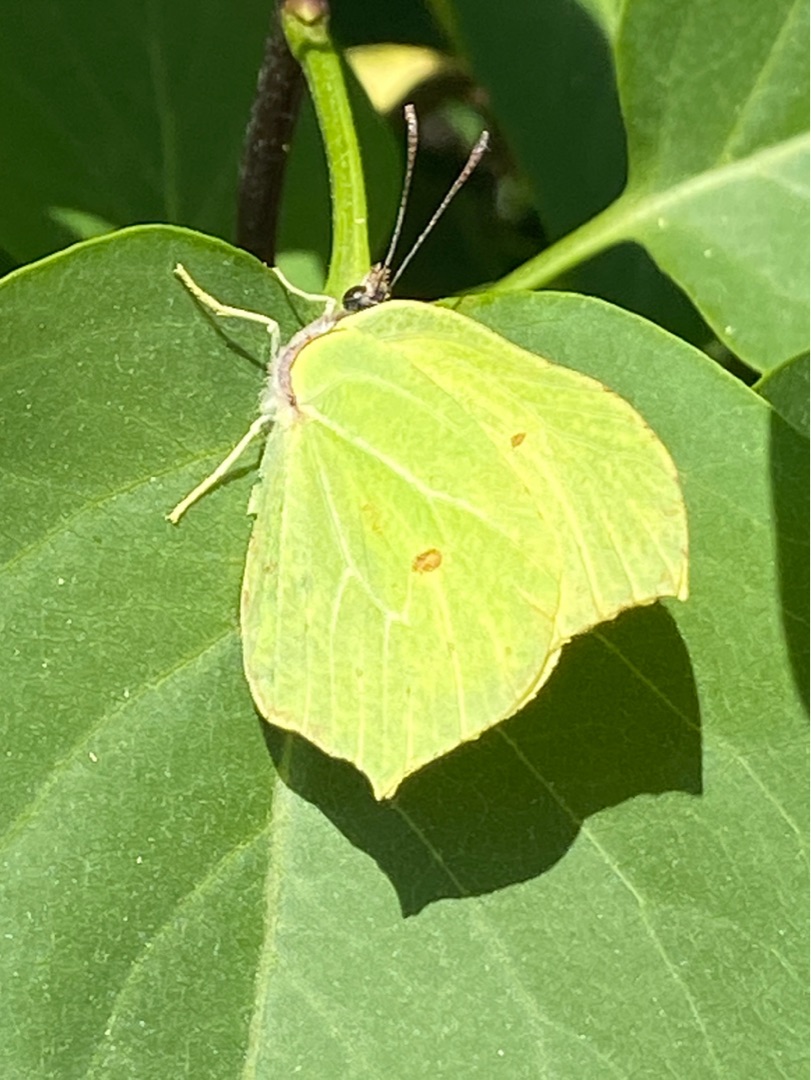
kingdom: Animalia
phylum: Arthropoda
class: Insecta
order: Lepidoptera
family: Pieridae
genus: Gonepteryx
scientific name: Gonepteryx rhamni
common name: Citronsommerfugl
